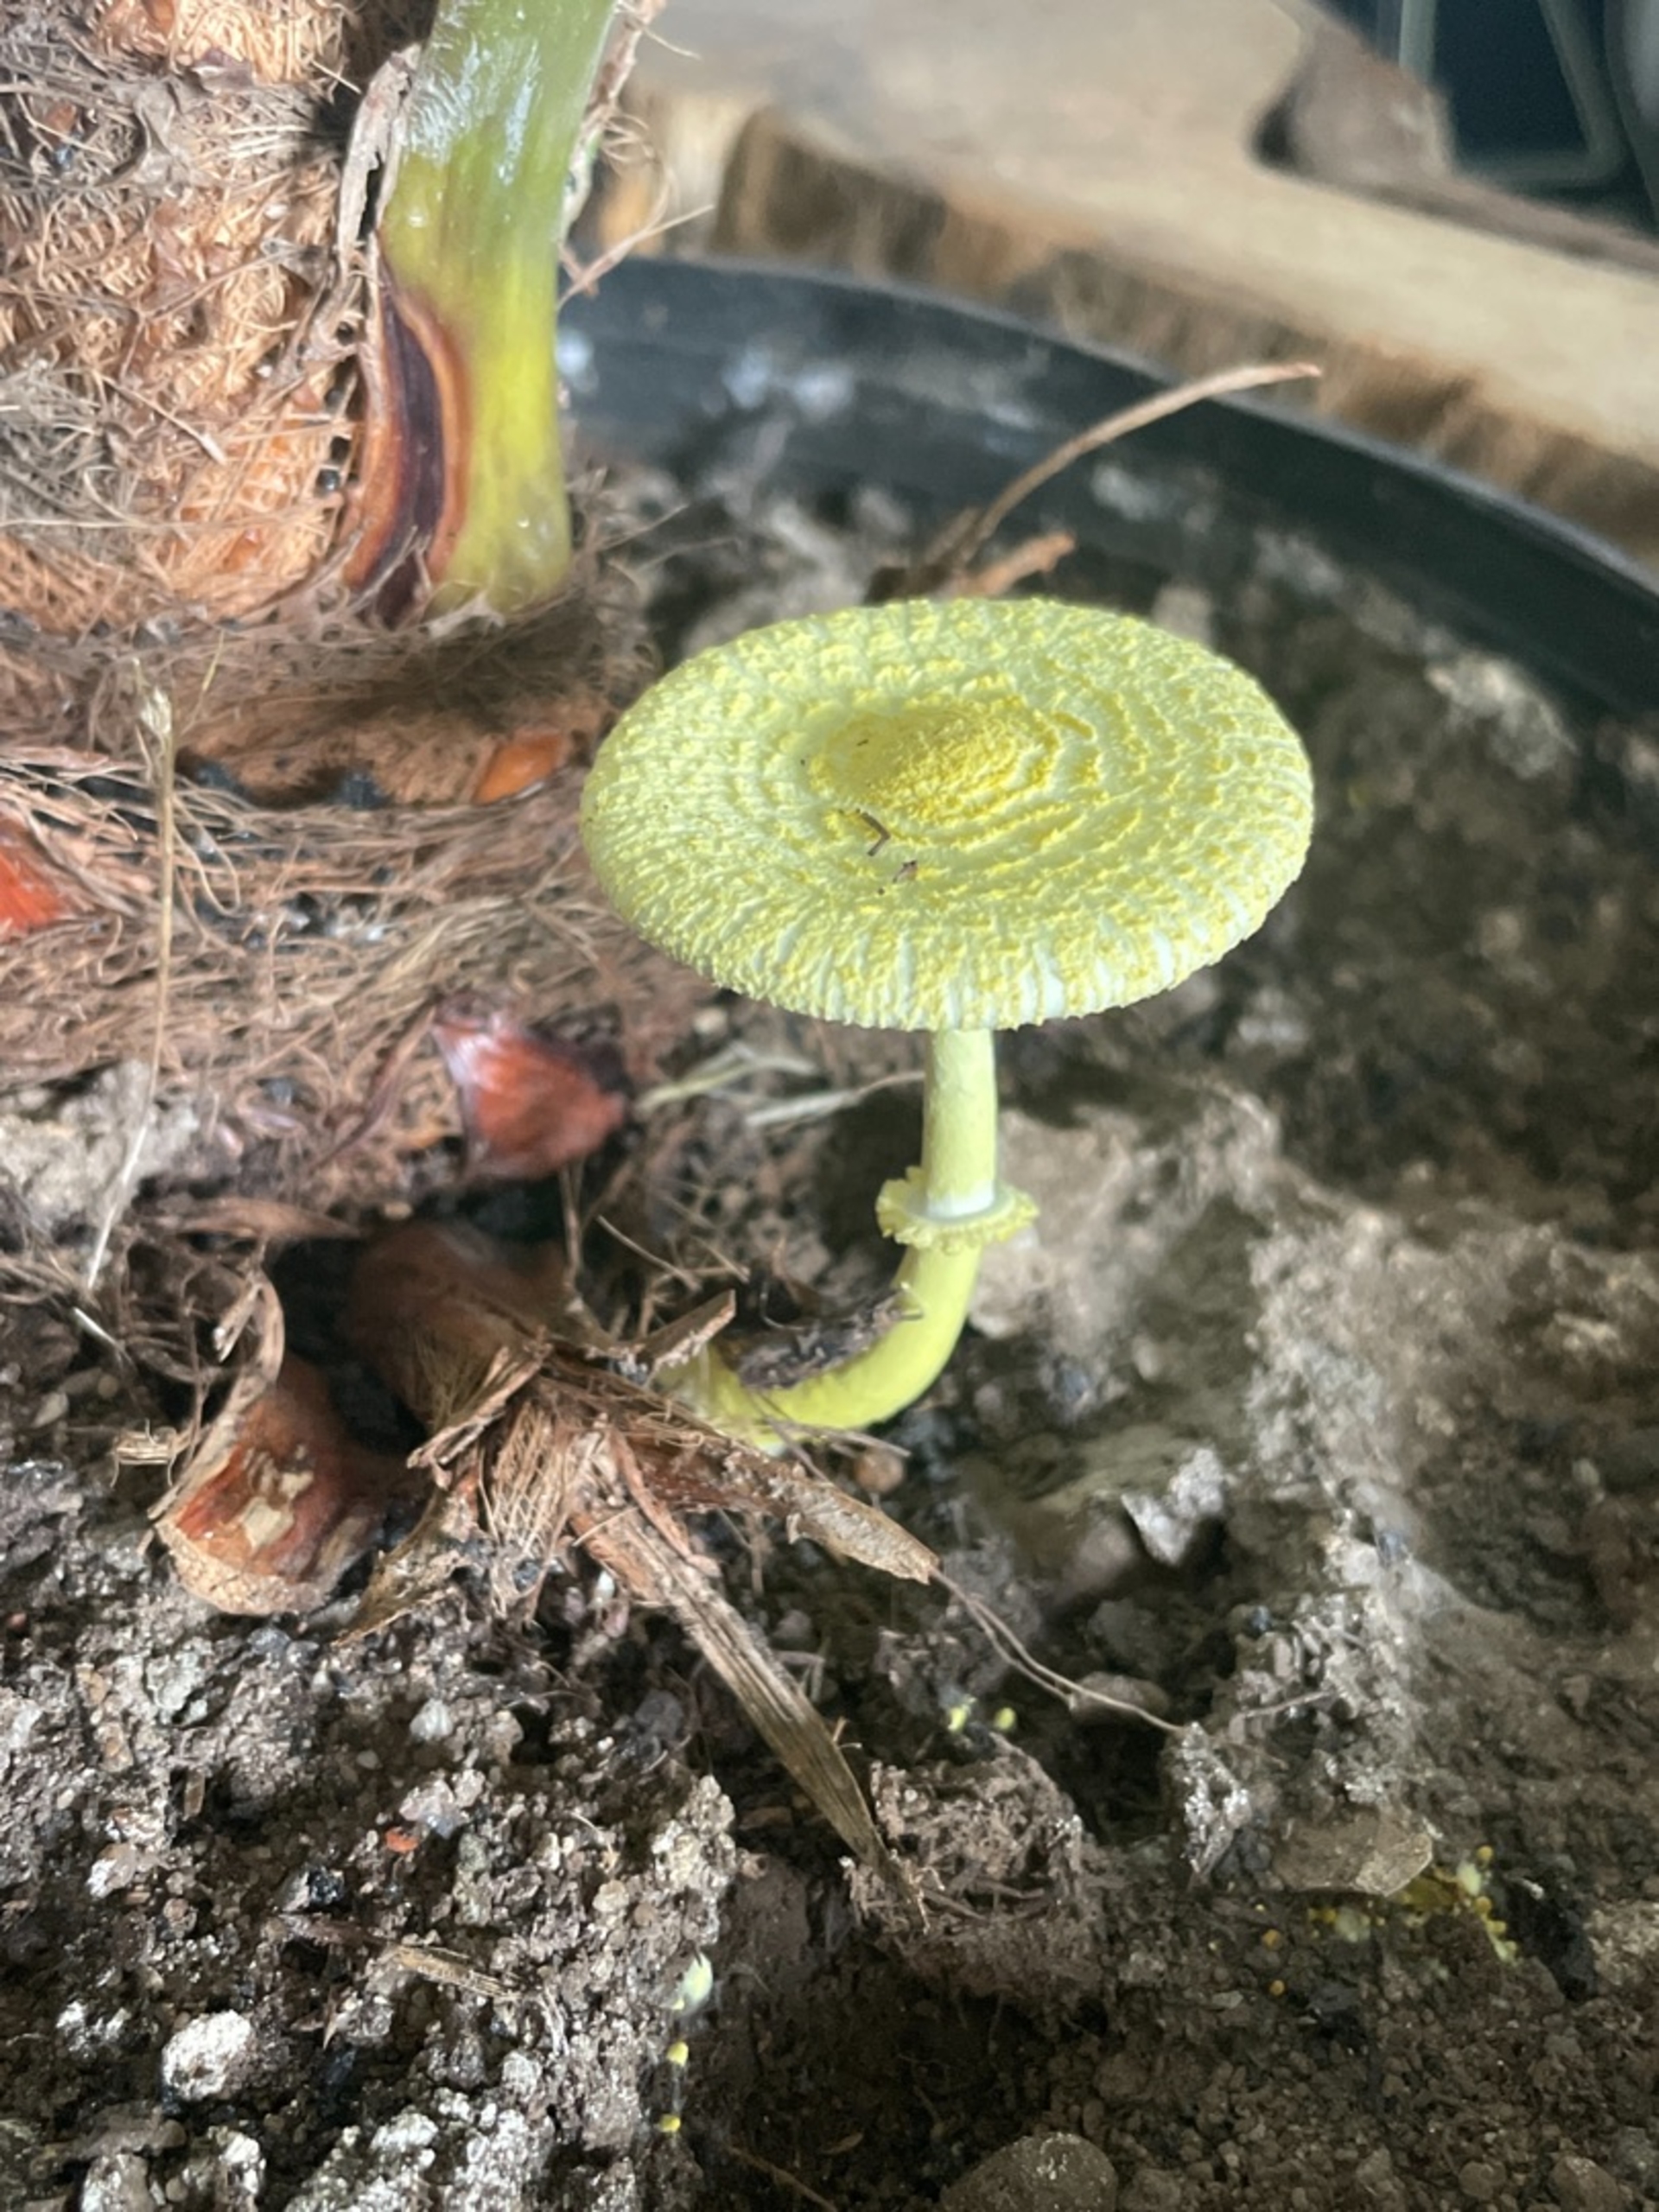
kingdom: Fungi
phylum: Basidiomycota
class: Agaricomycetes
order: Agaricales
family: Agaricaceae
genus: Leucocoprinus
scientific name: Leucocoprinus birnbaumii
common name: Gul silkehat
